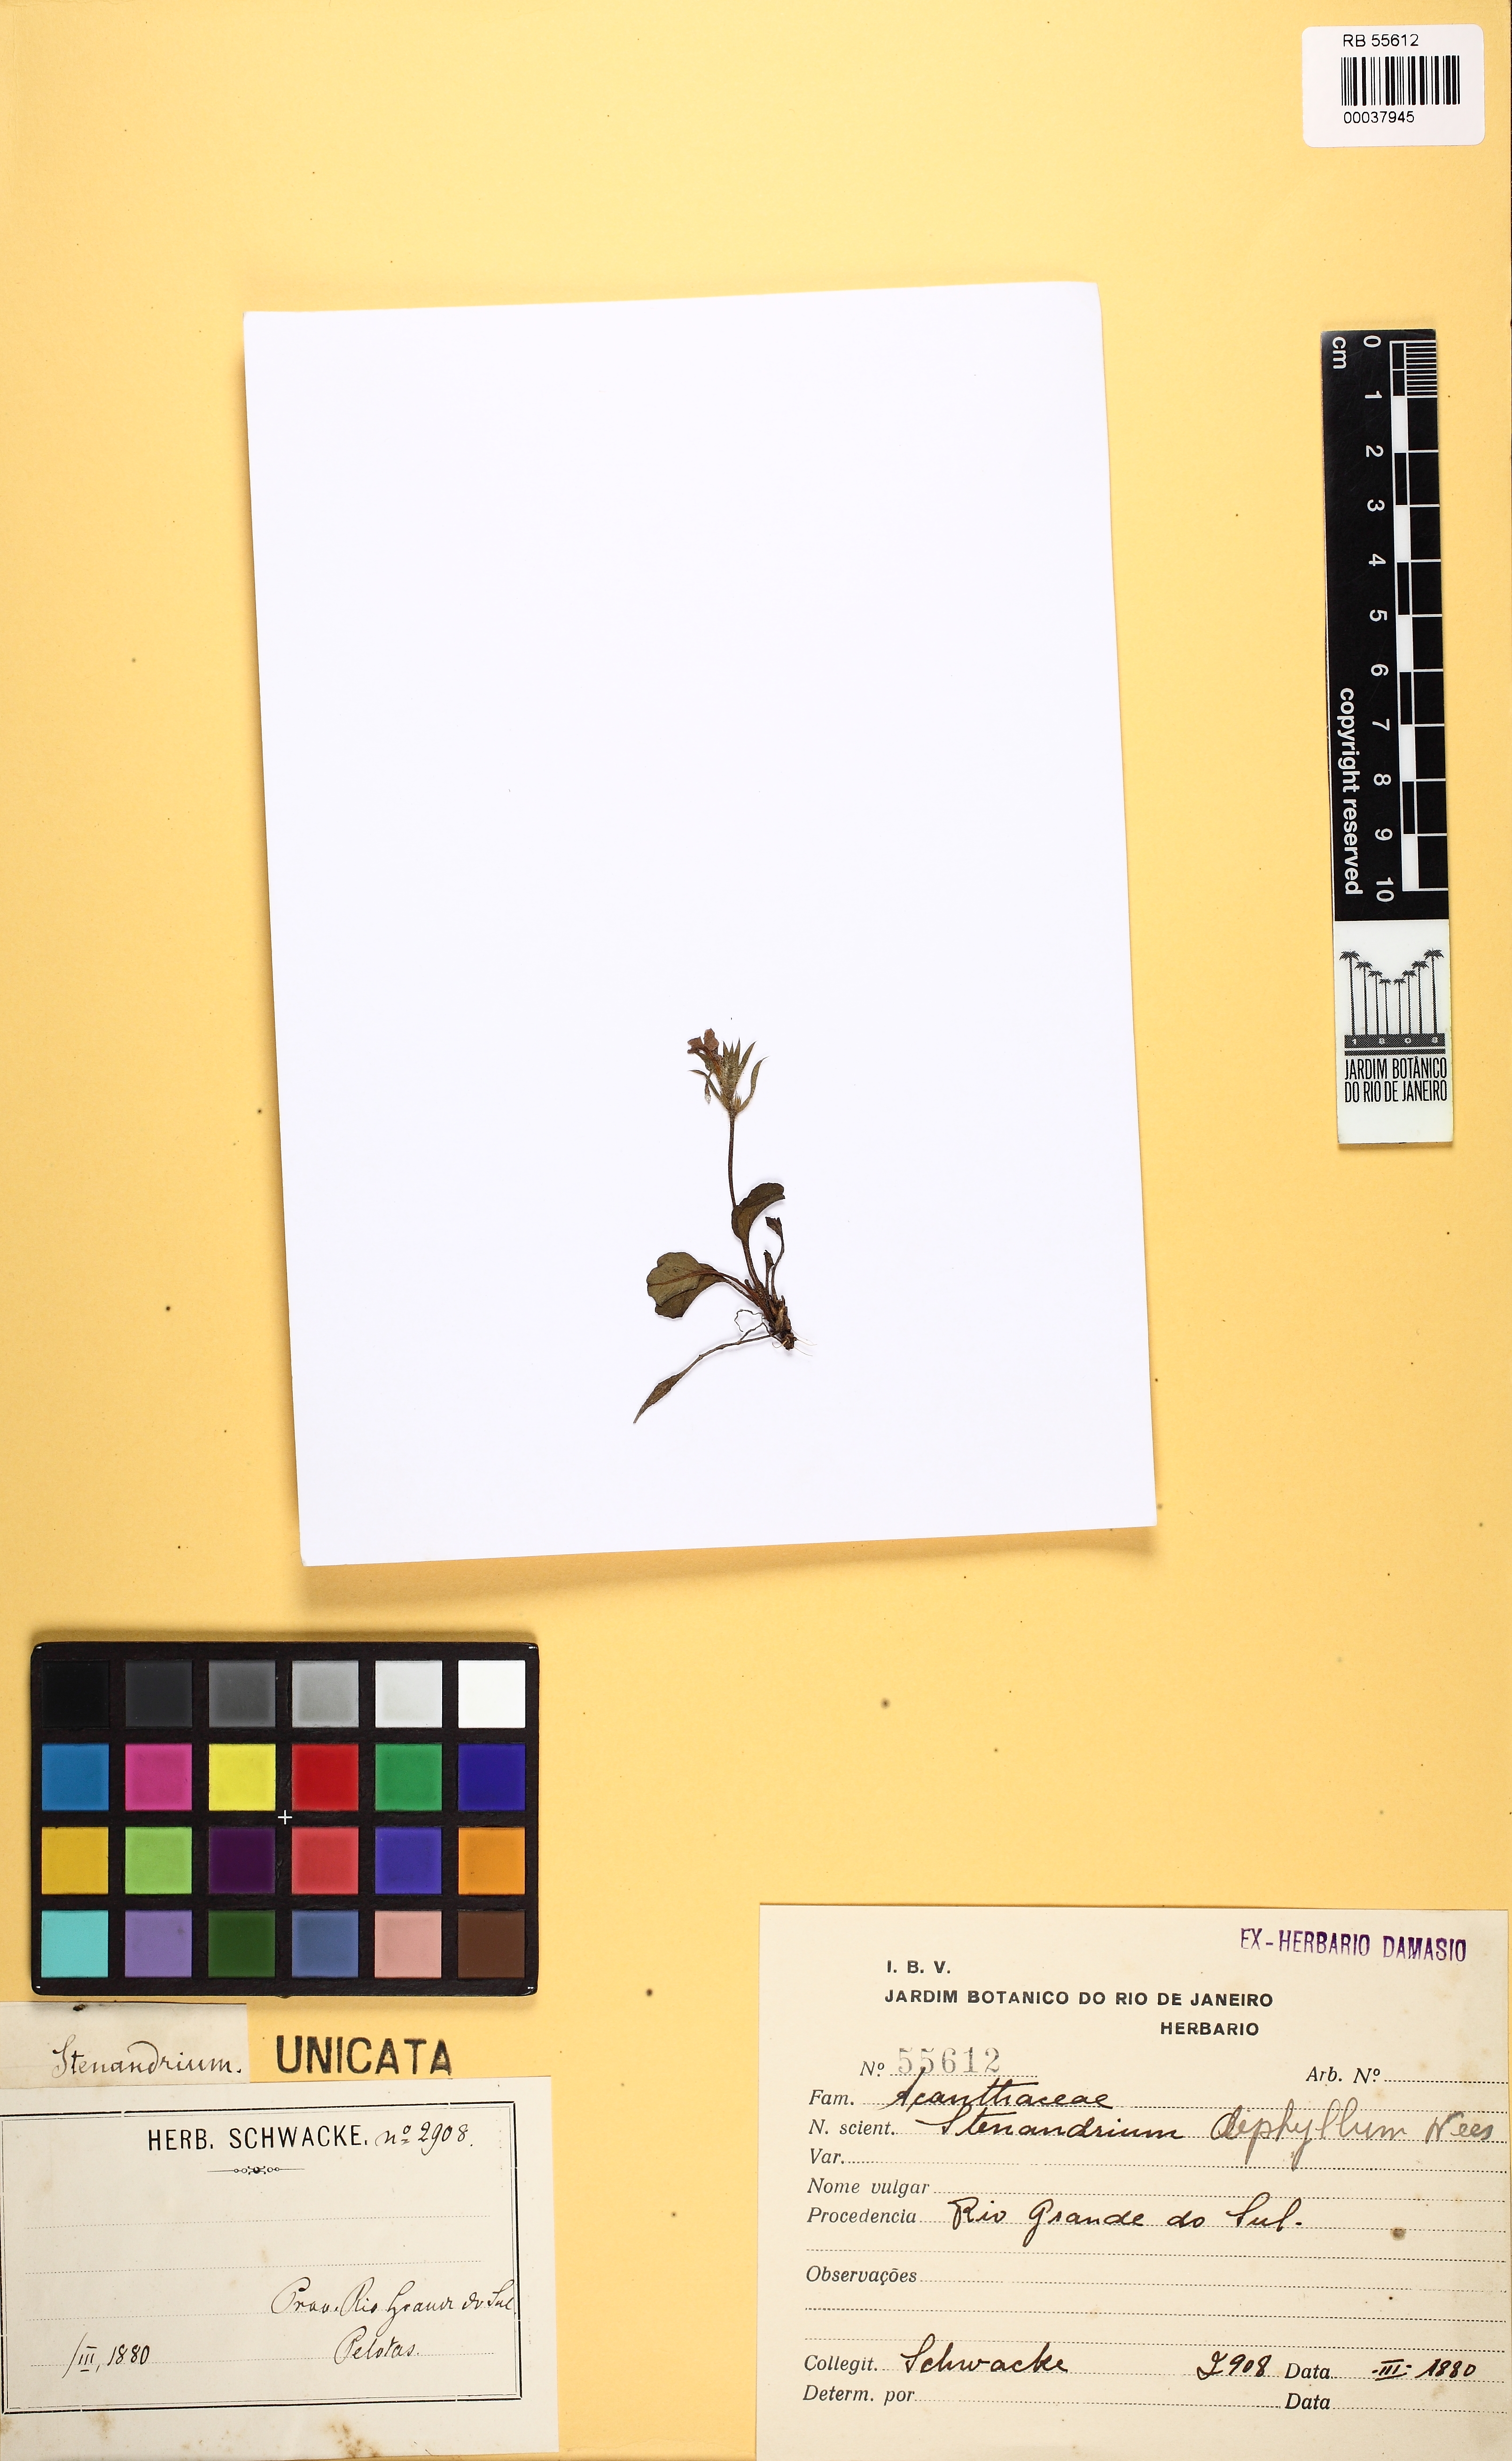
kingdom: Plantae
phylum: Tracheophyta
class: Magnoliopsida
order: Lamiales
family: Acanthaceae
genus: Stenandrium
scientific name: Stenandrium diphyllum
